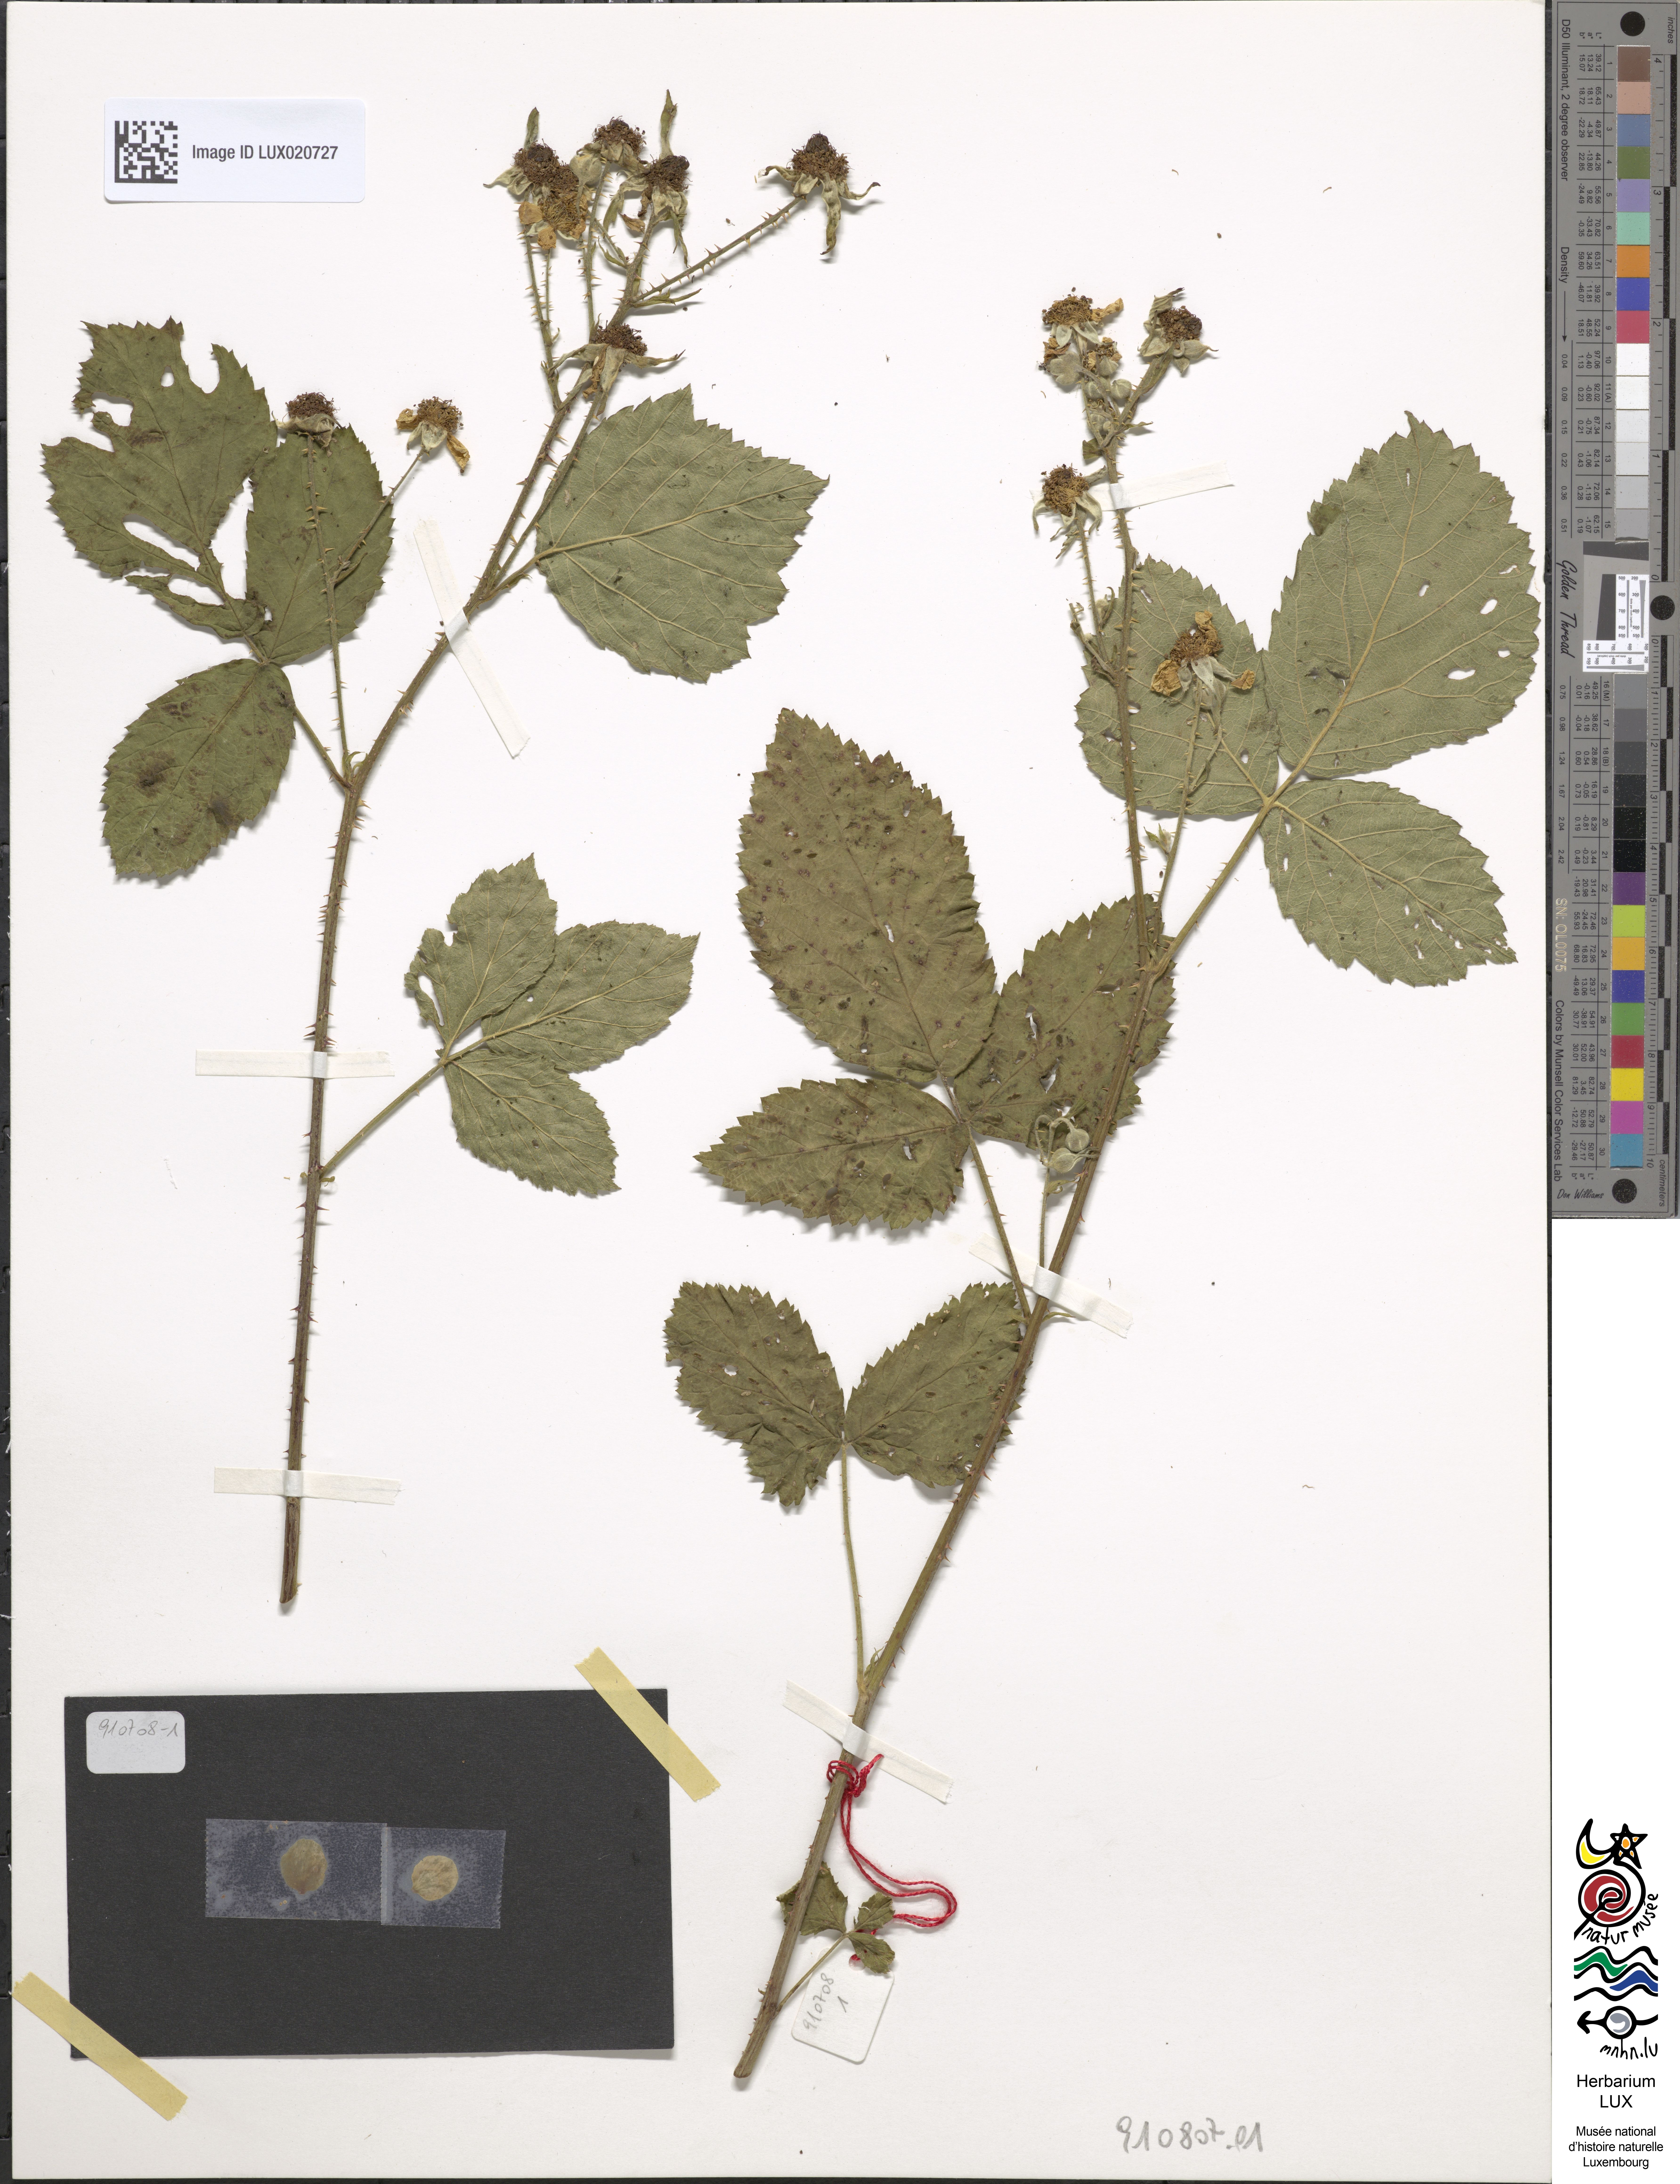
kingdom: Plantae
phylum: Tracheophyta
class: Magnoliopsida
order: Rosales
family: Rosaceae
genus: Rubus
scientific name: Rubus hadracanthos
